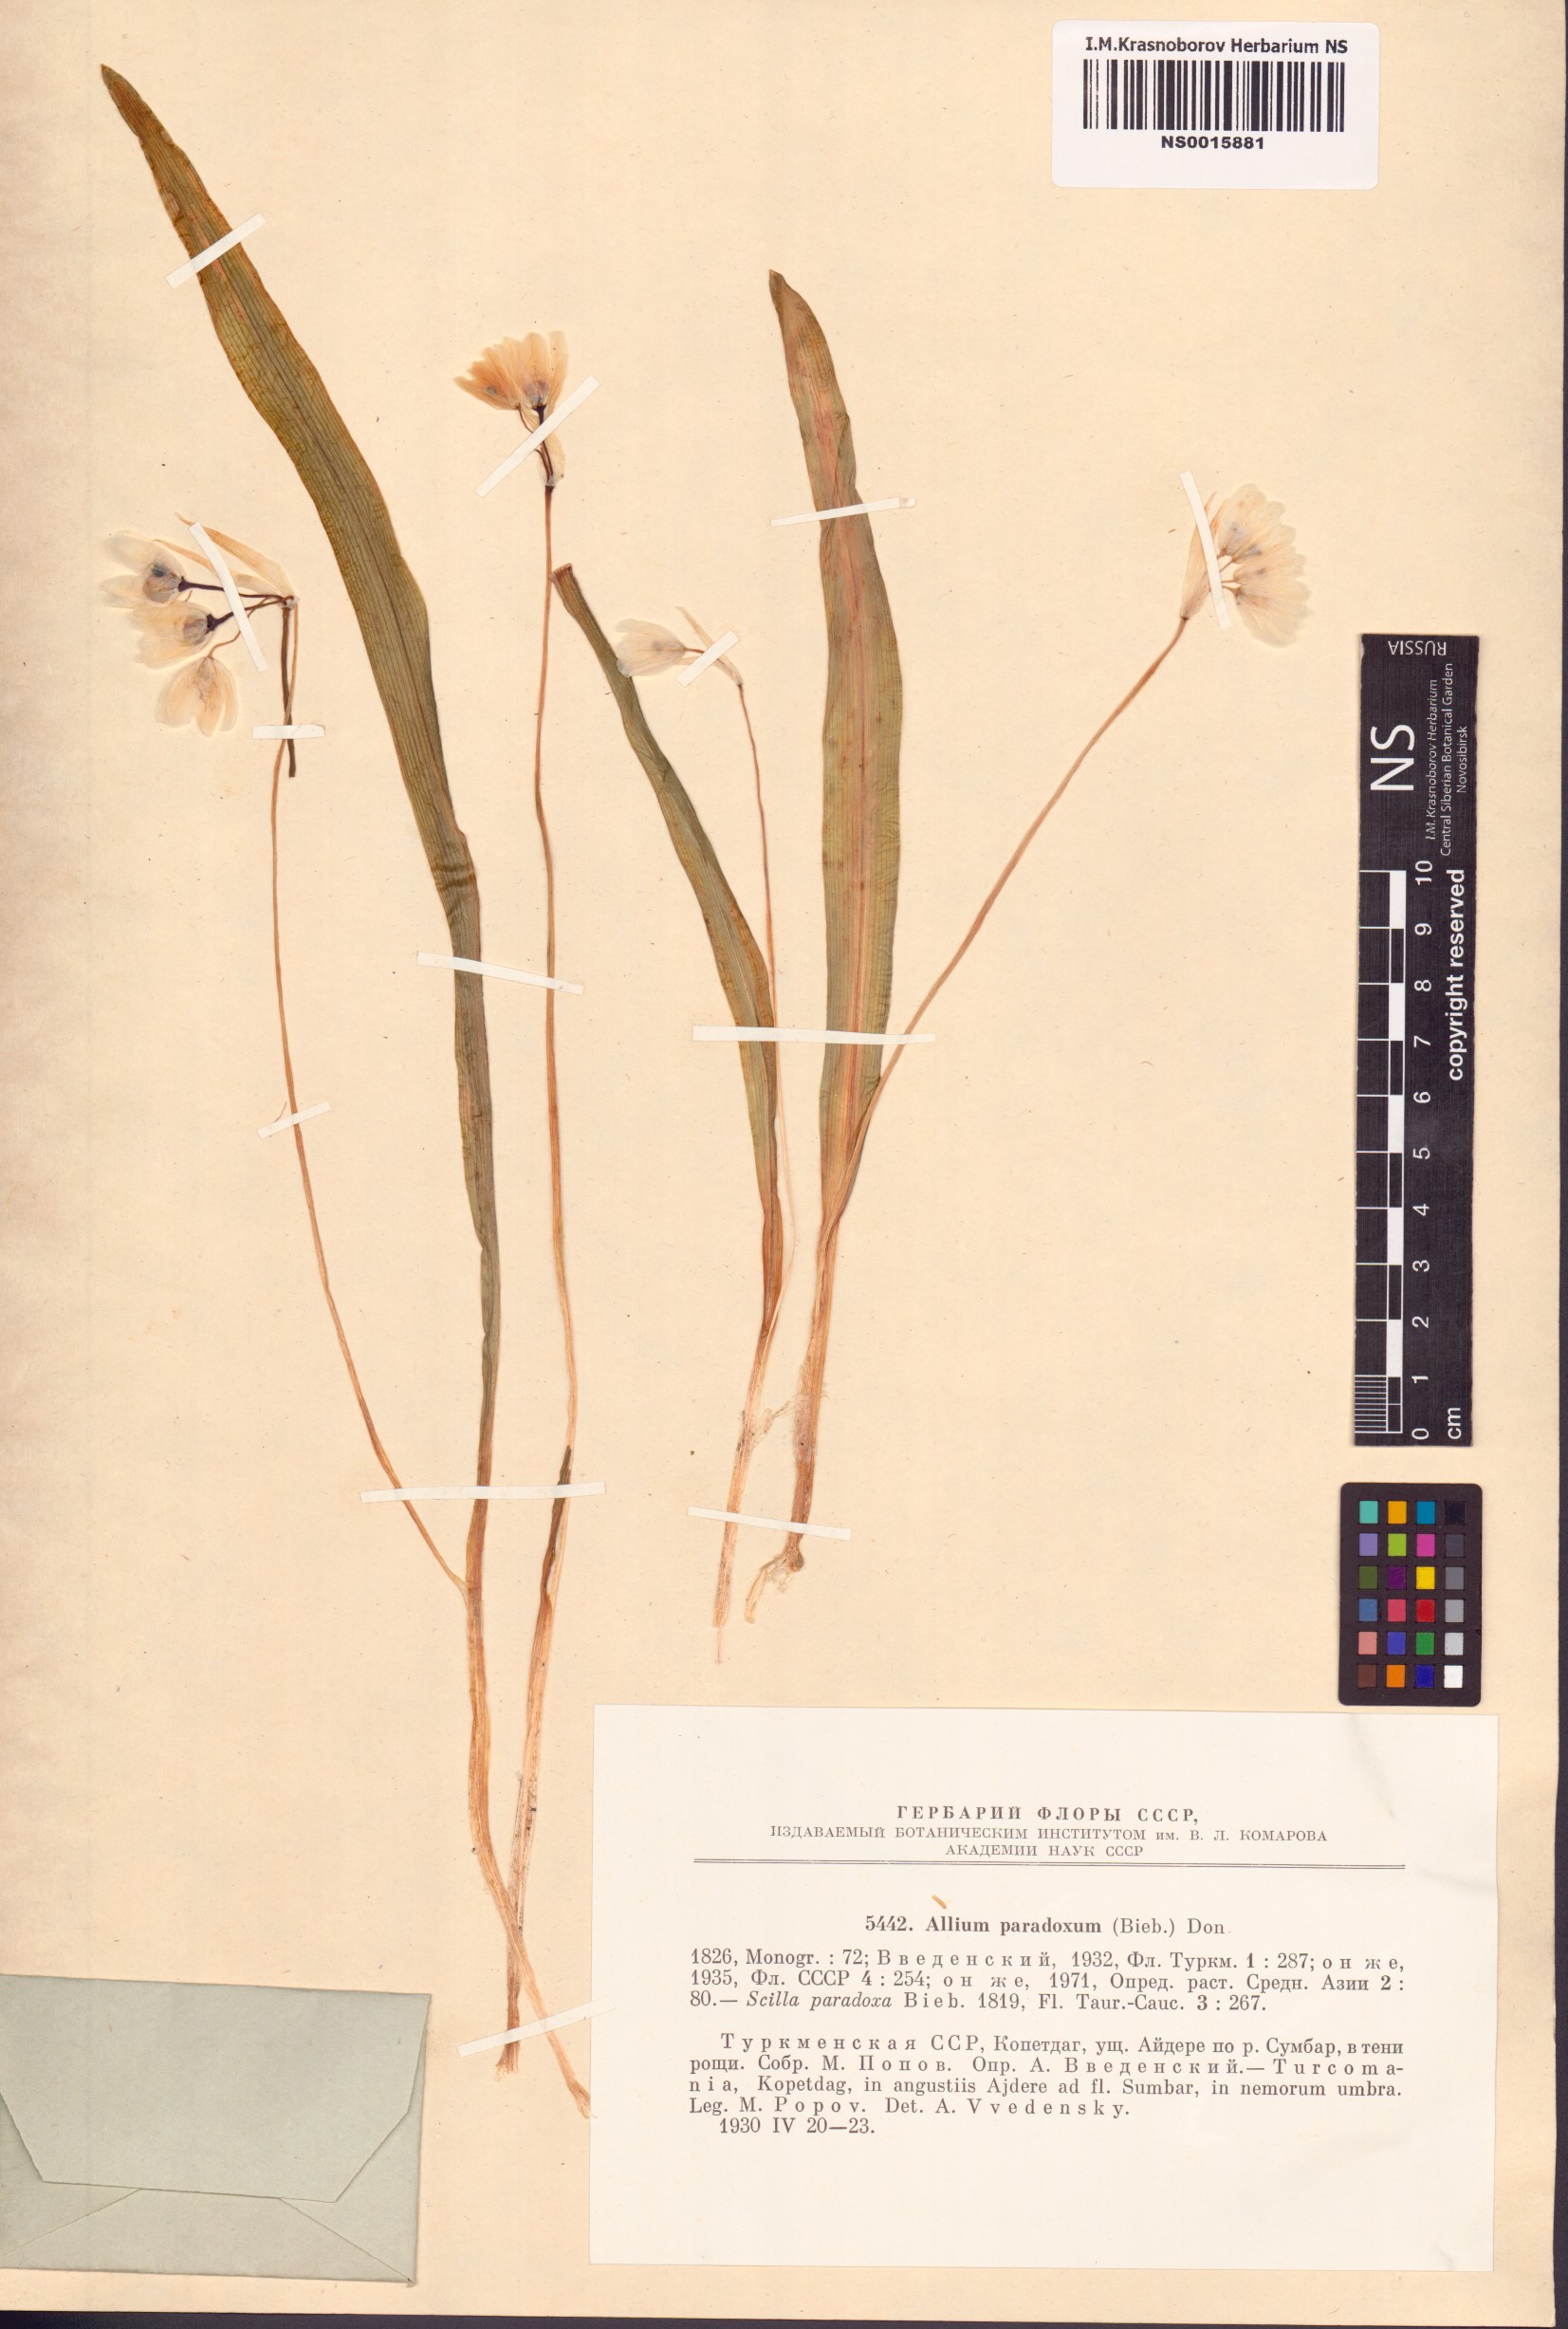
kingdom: Plantae
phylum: Tracheophyta
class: Liliopsida
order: Asparagales
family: Amaryllidaceae
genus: Allium
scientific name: Allium paradoxum
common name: Few-flowered garlic
